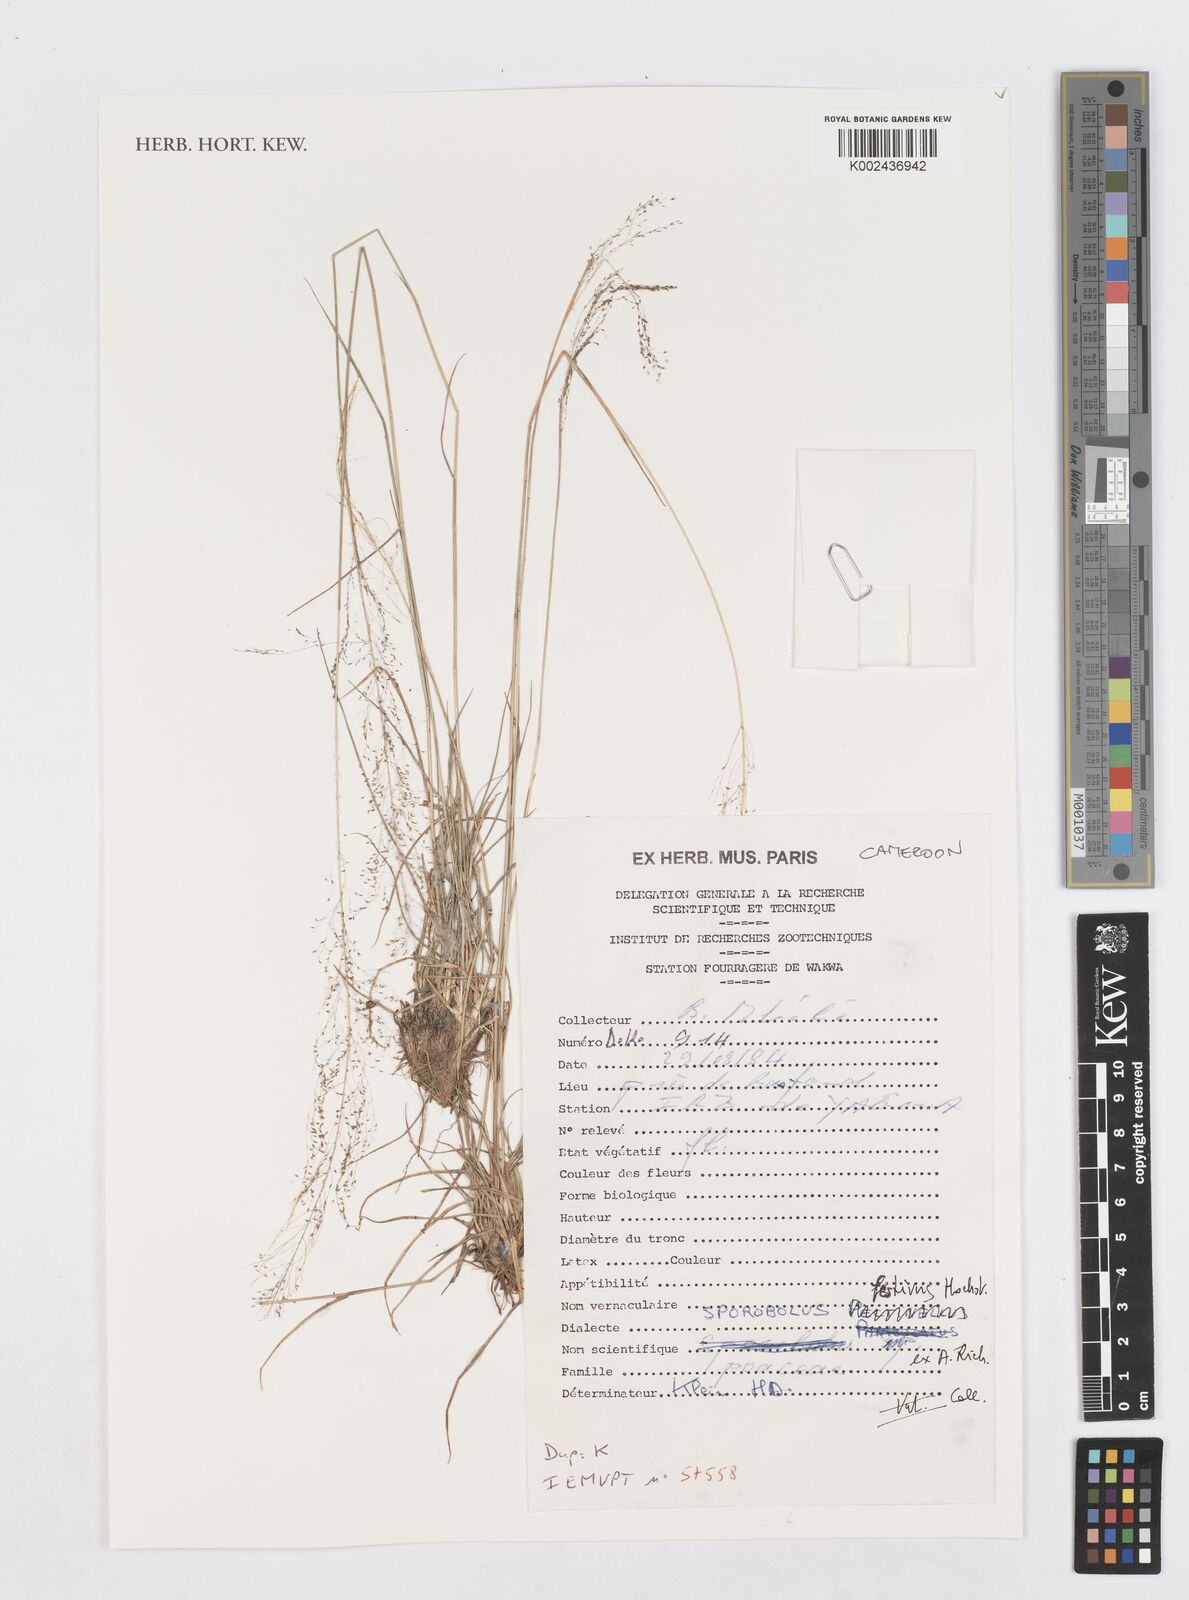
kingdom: Plantae
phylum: Tracheophyta
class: Liliopsida
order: Poales
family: Poaceae
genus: Sporobolus
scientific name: Sporobolus festivus
